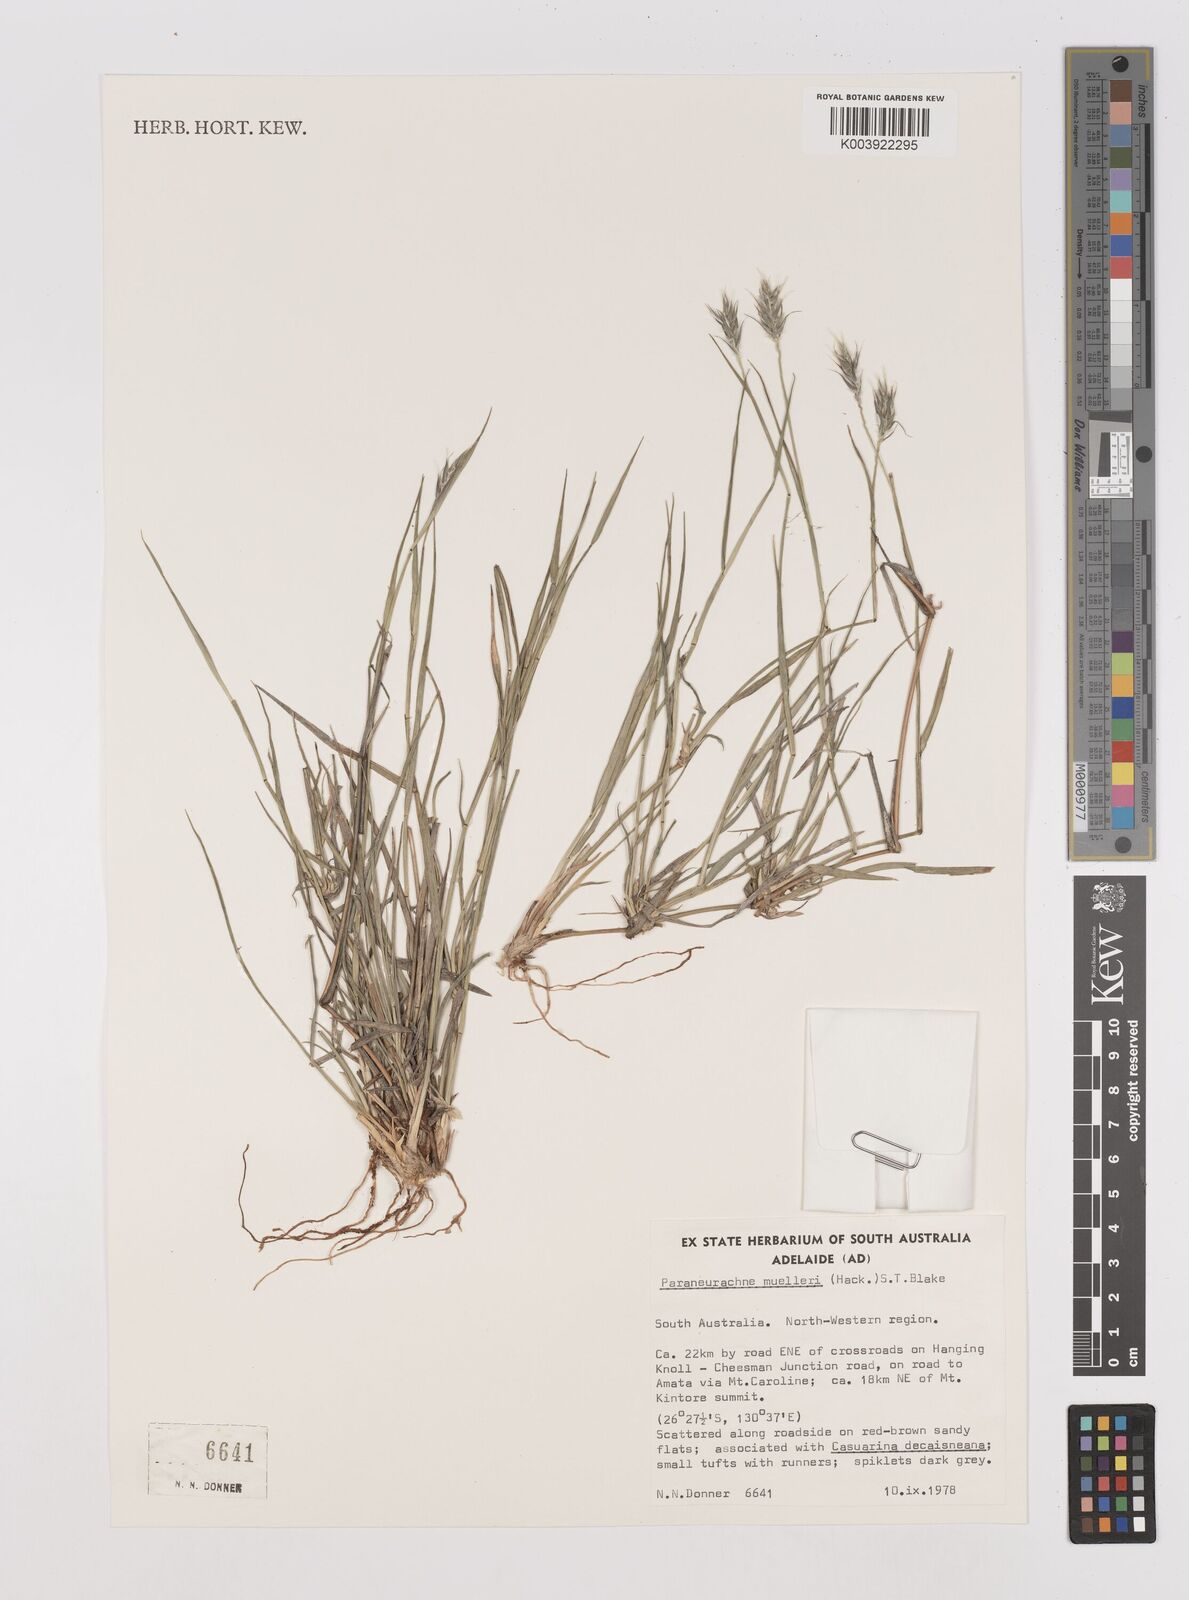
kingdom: Plantae
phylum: Tracheophyta
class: Liliopsida
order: Poales
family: Poaceae
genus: Neurachne
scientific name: Neurachne muelleri
